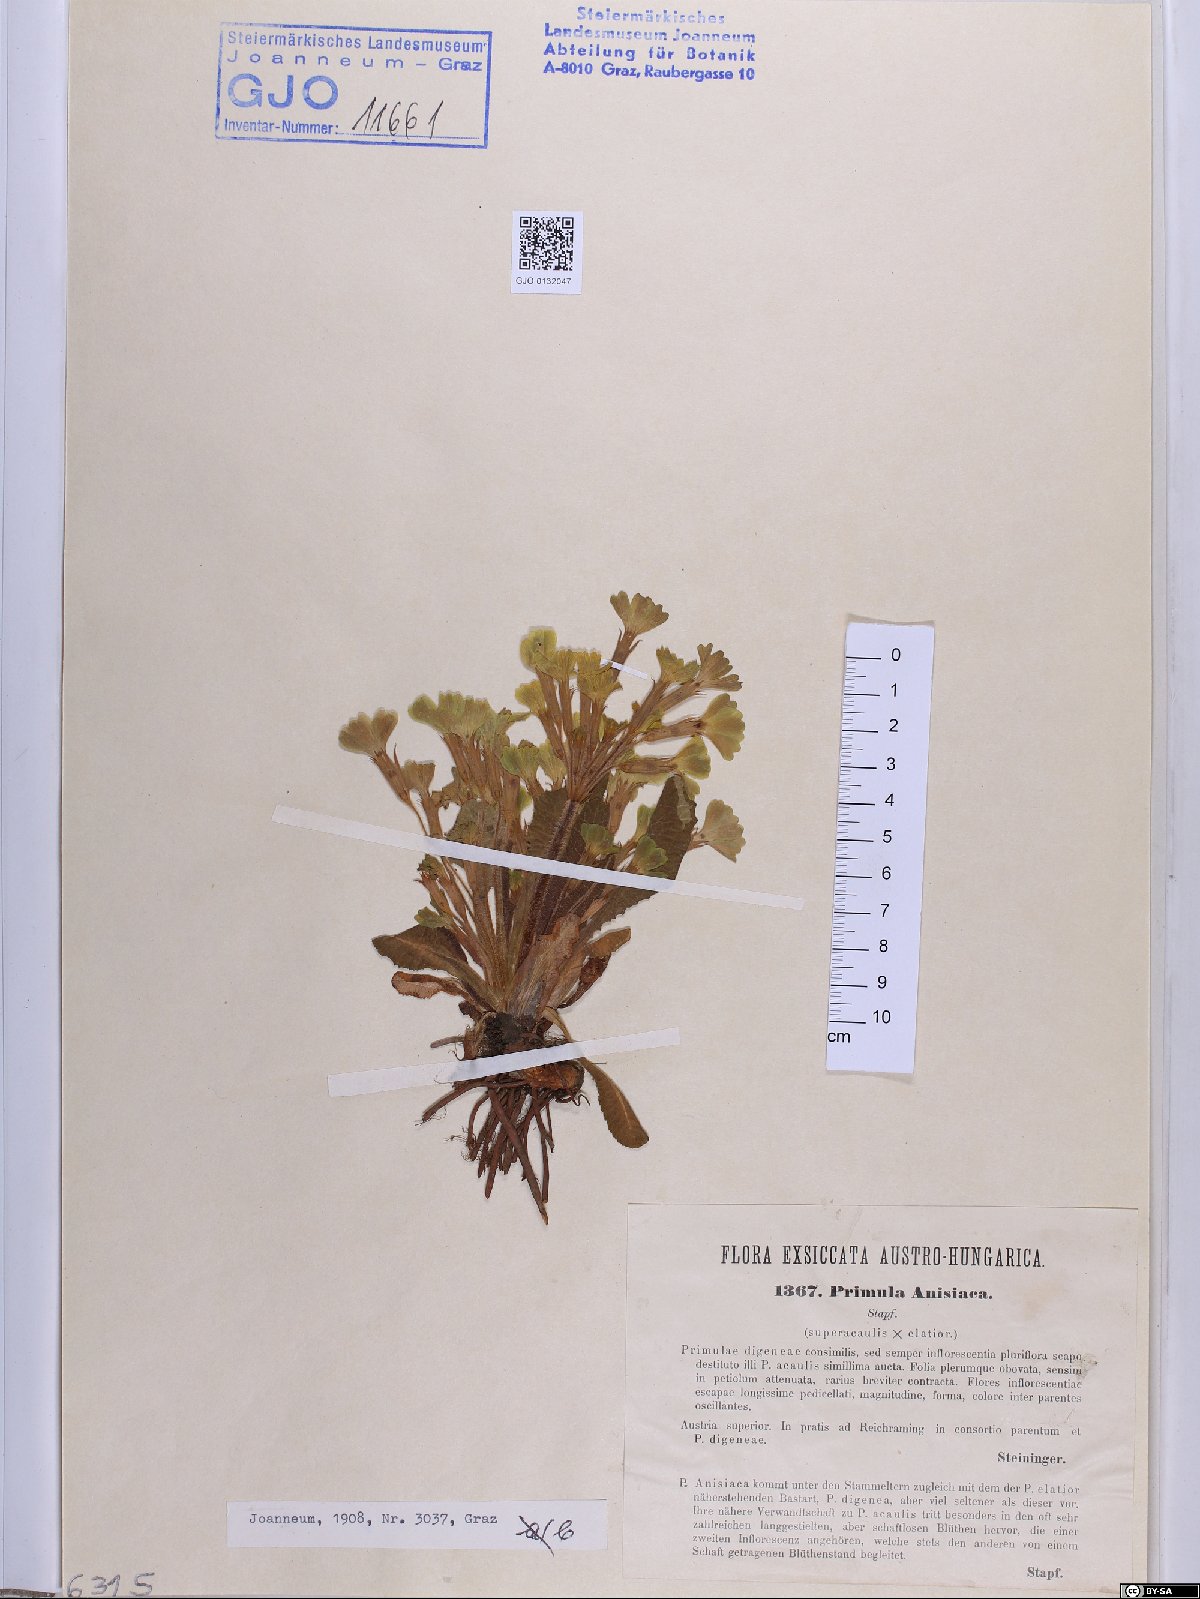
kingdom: Plantae
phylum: Tracheophyta
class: Magnoliopsida
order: Ericales
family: Primulaceae
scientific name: Primulaceae
